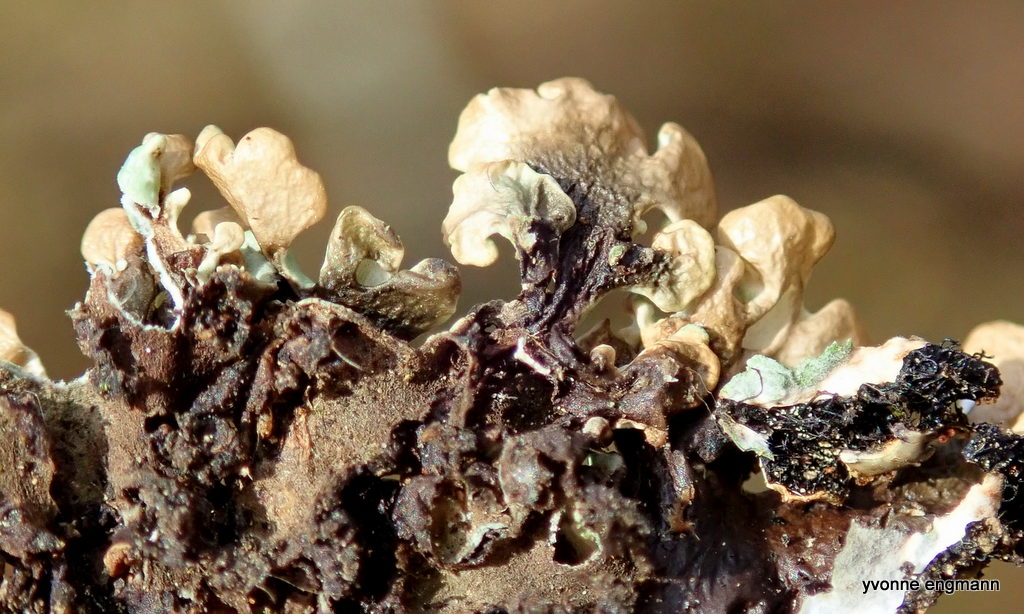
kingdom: Fungi
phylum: Ascomycota
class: Lecanoromycetes
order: Lecanorales
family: Parmeliaceae
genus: Hypogymnia
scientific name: Hypogymnia physodes
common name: almindelig kvistlav
